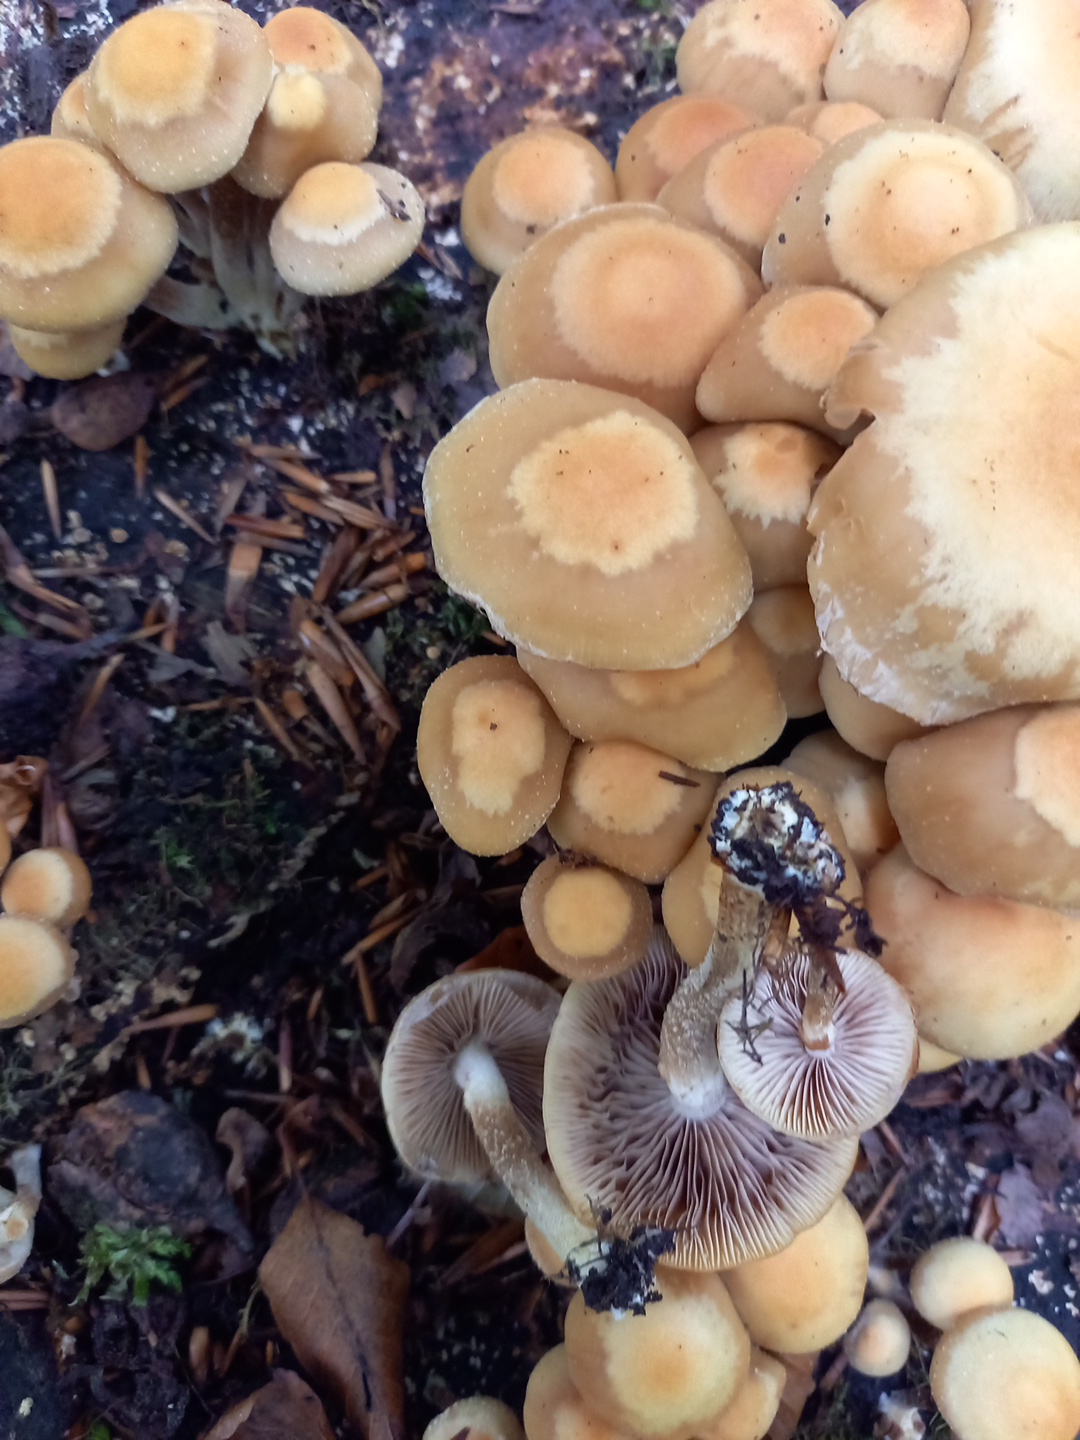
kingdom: Fungi
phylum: Basidiomycota
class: Agaricomycetes
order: Agaricales
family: Strophariaceae
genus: Kuehneromyces
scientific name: Kuehneromyces mutabilis
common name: foranderlig skælhat
